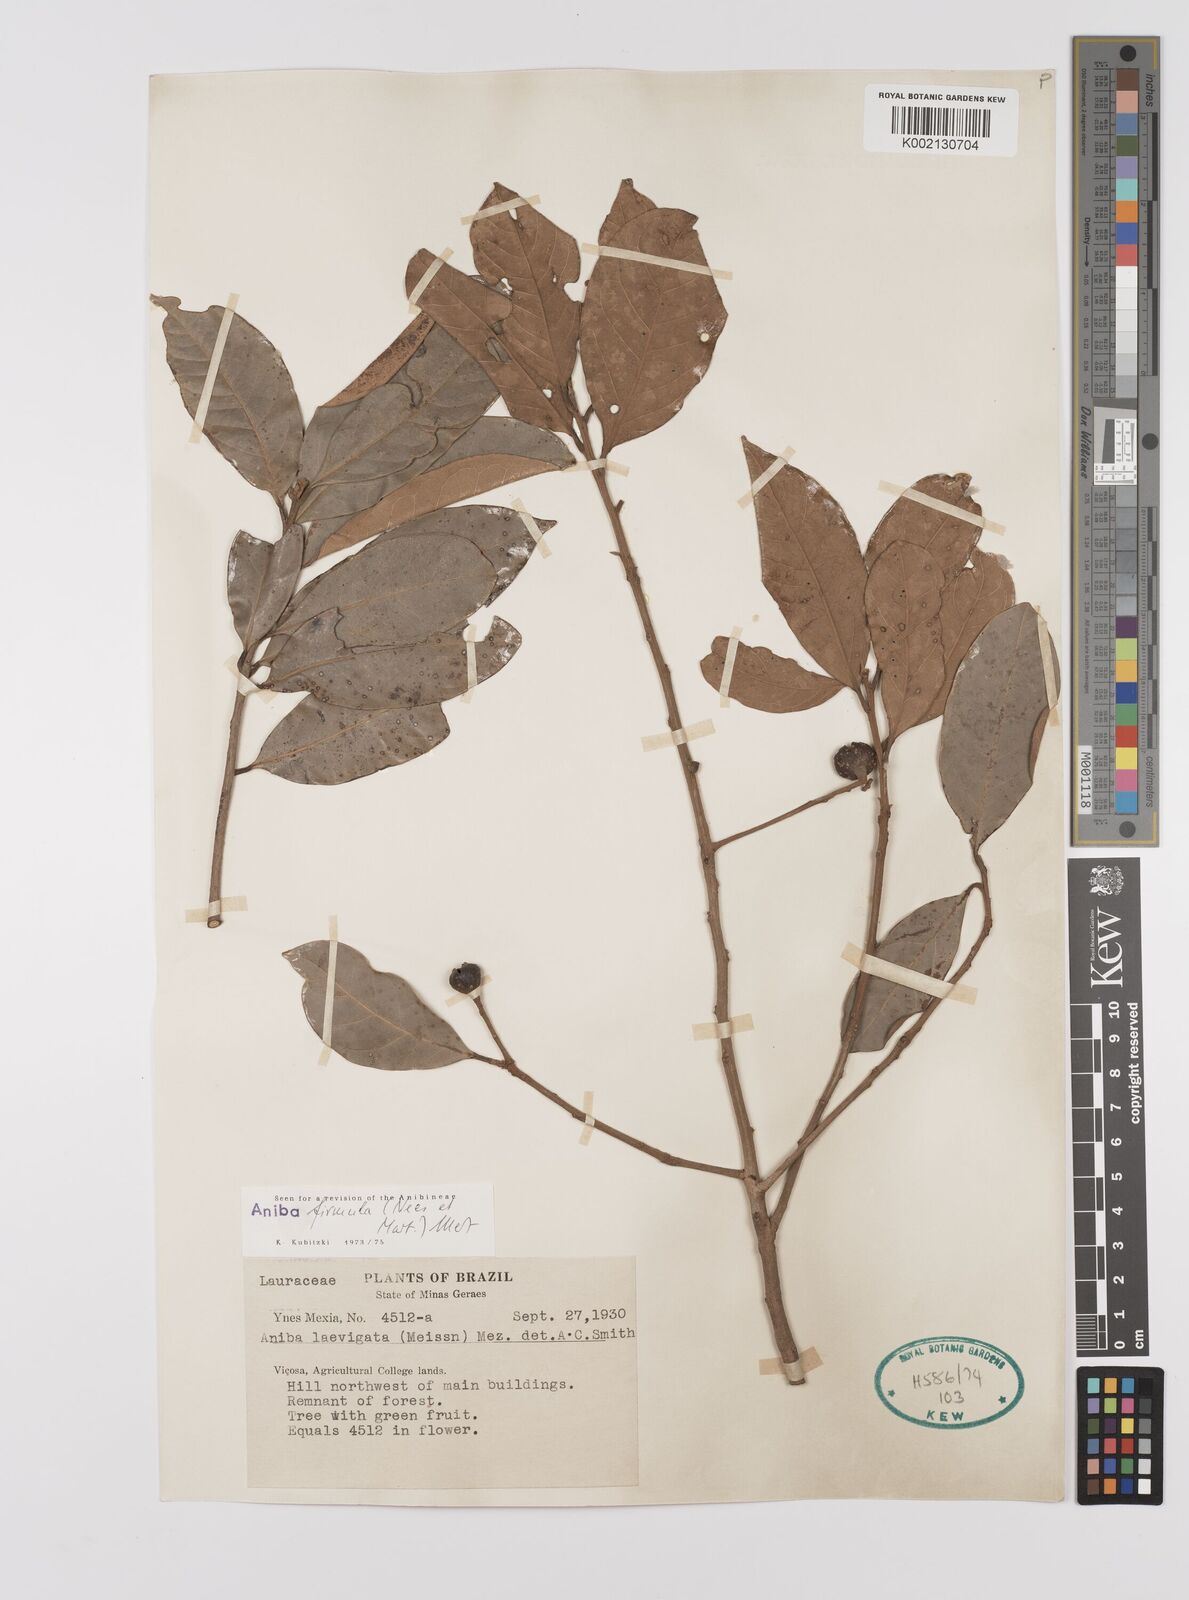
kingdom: Plantae
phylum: Tracheophyta
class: Magnoliopsida
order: Laurales
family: Lauraceae
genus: Aniba
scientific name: Aniba firmula
